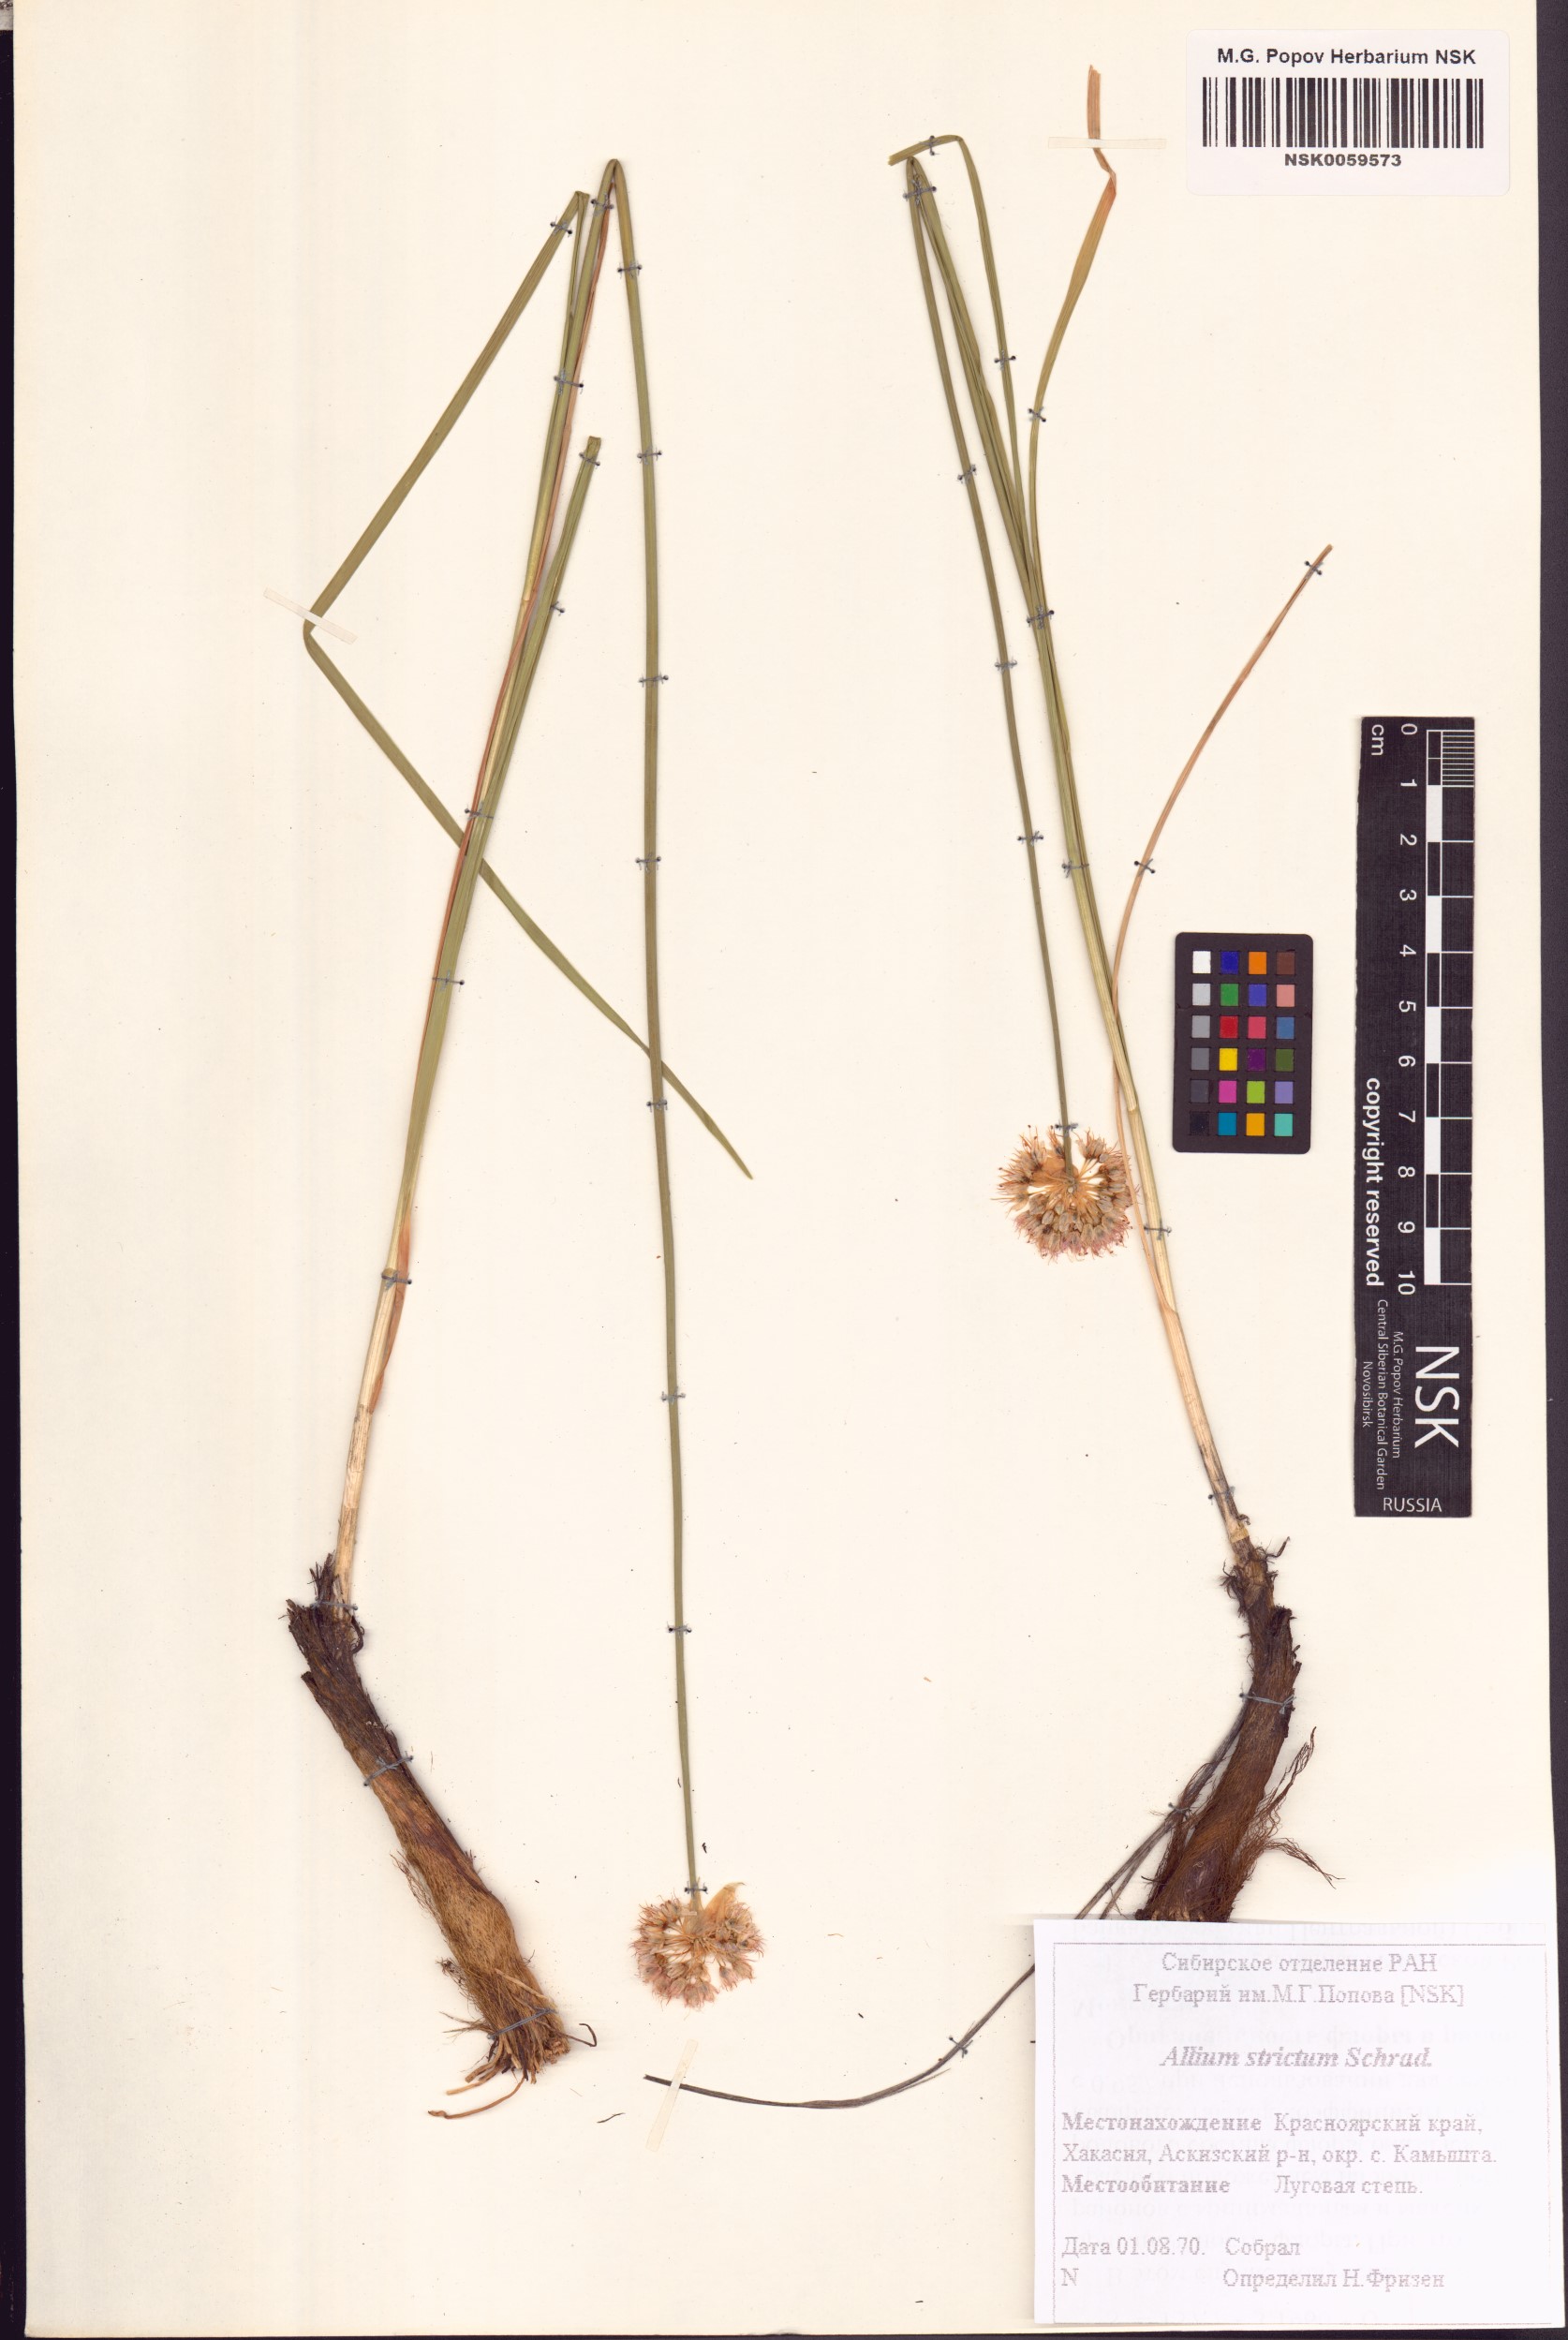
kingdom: Plantae
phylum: Tracheophyta
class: Liliopsida
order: Asparagales
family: Amaryllidaceae
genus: Allium
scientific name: Allium strictum
